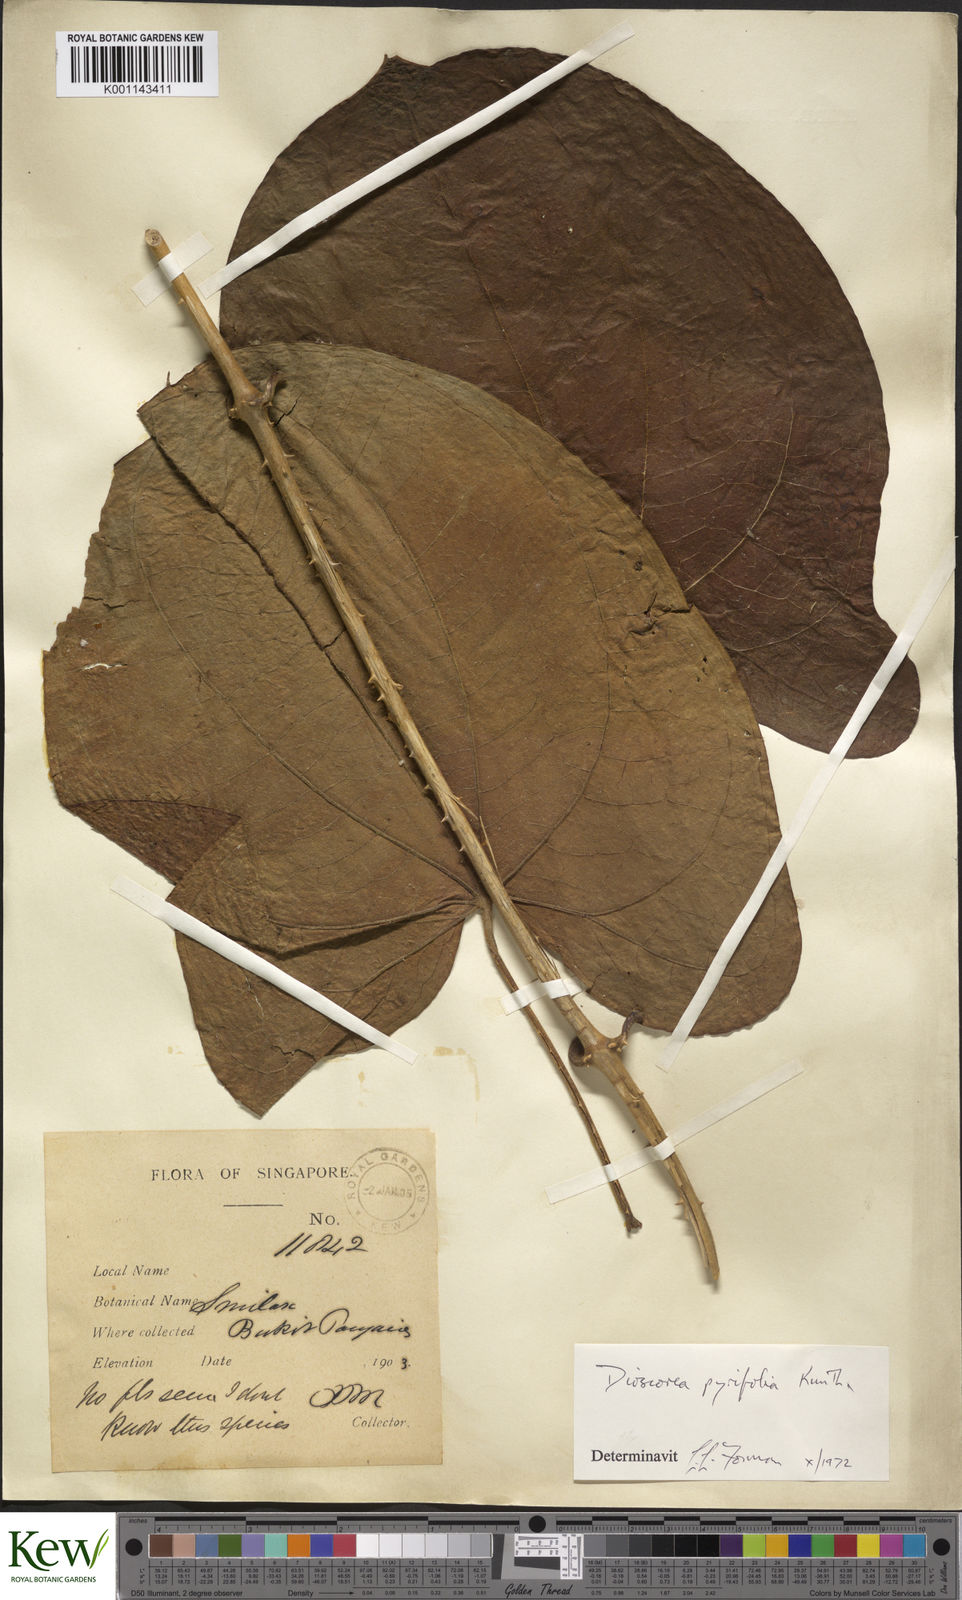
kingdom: Plantae
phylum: Tracheophyta
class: Liliopsida
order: Dioscoreales
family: Dioscoreaceae
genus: Dioscorea
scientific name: Dioscorea pyrifolia
